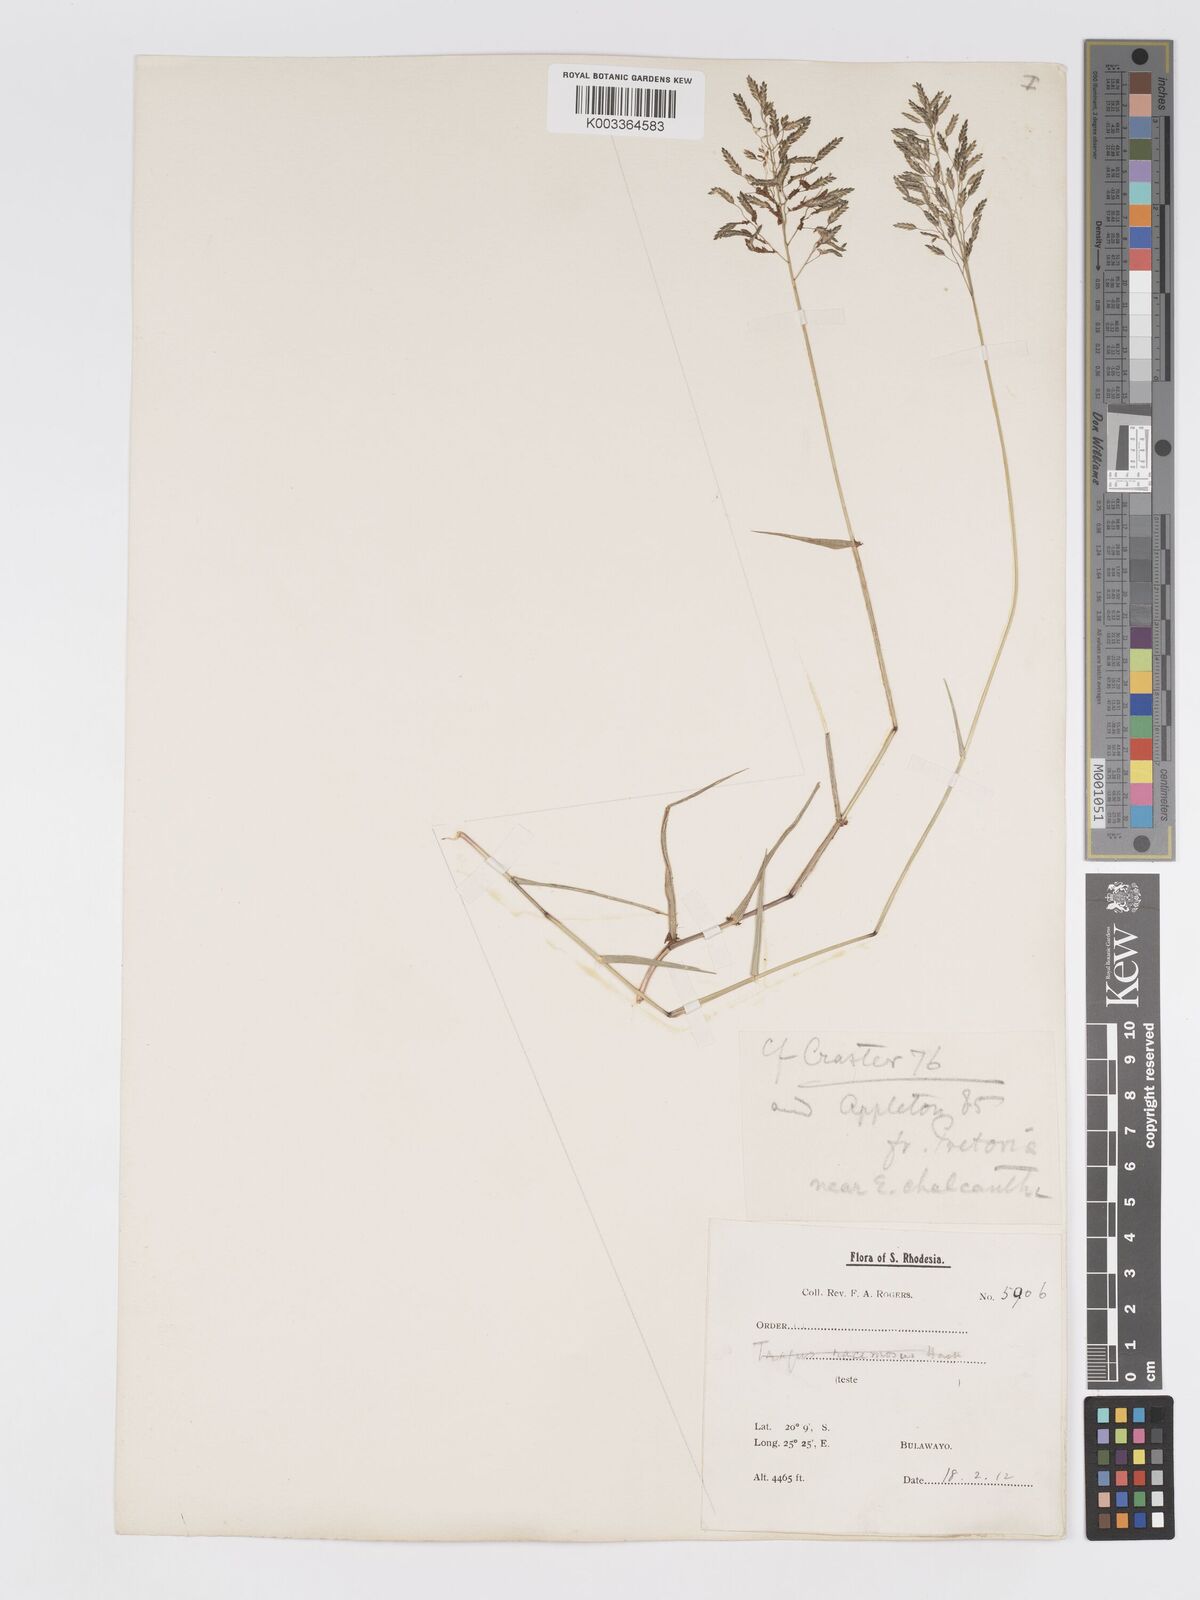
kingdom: Plantae
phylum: Tracheophyta
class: Liliopsida
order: Poales
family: Poaceae
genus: Eragrostis
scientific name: Eragrostis patentipilosa
